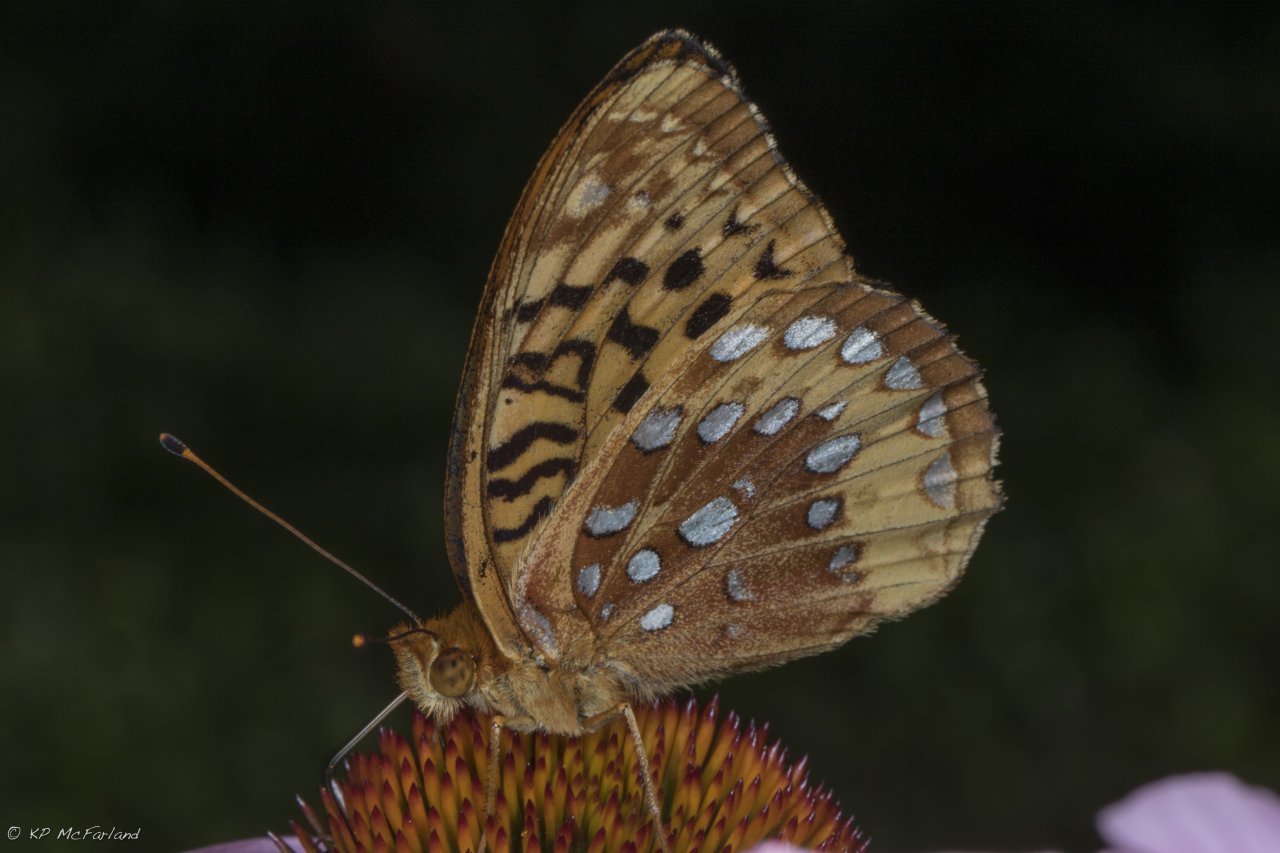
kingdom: Animalia
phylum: Arthropoda
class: Insecta
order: Lepidoptera
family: Nymphalidae
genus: Speyeria
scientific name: Speyeria cybele
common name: Great Spangled Fritillary
